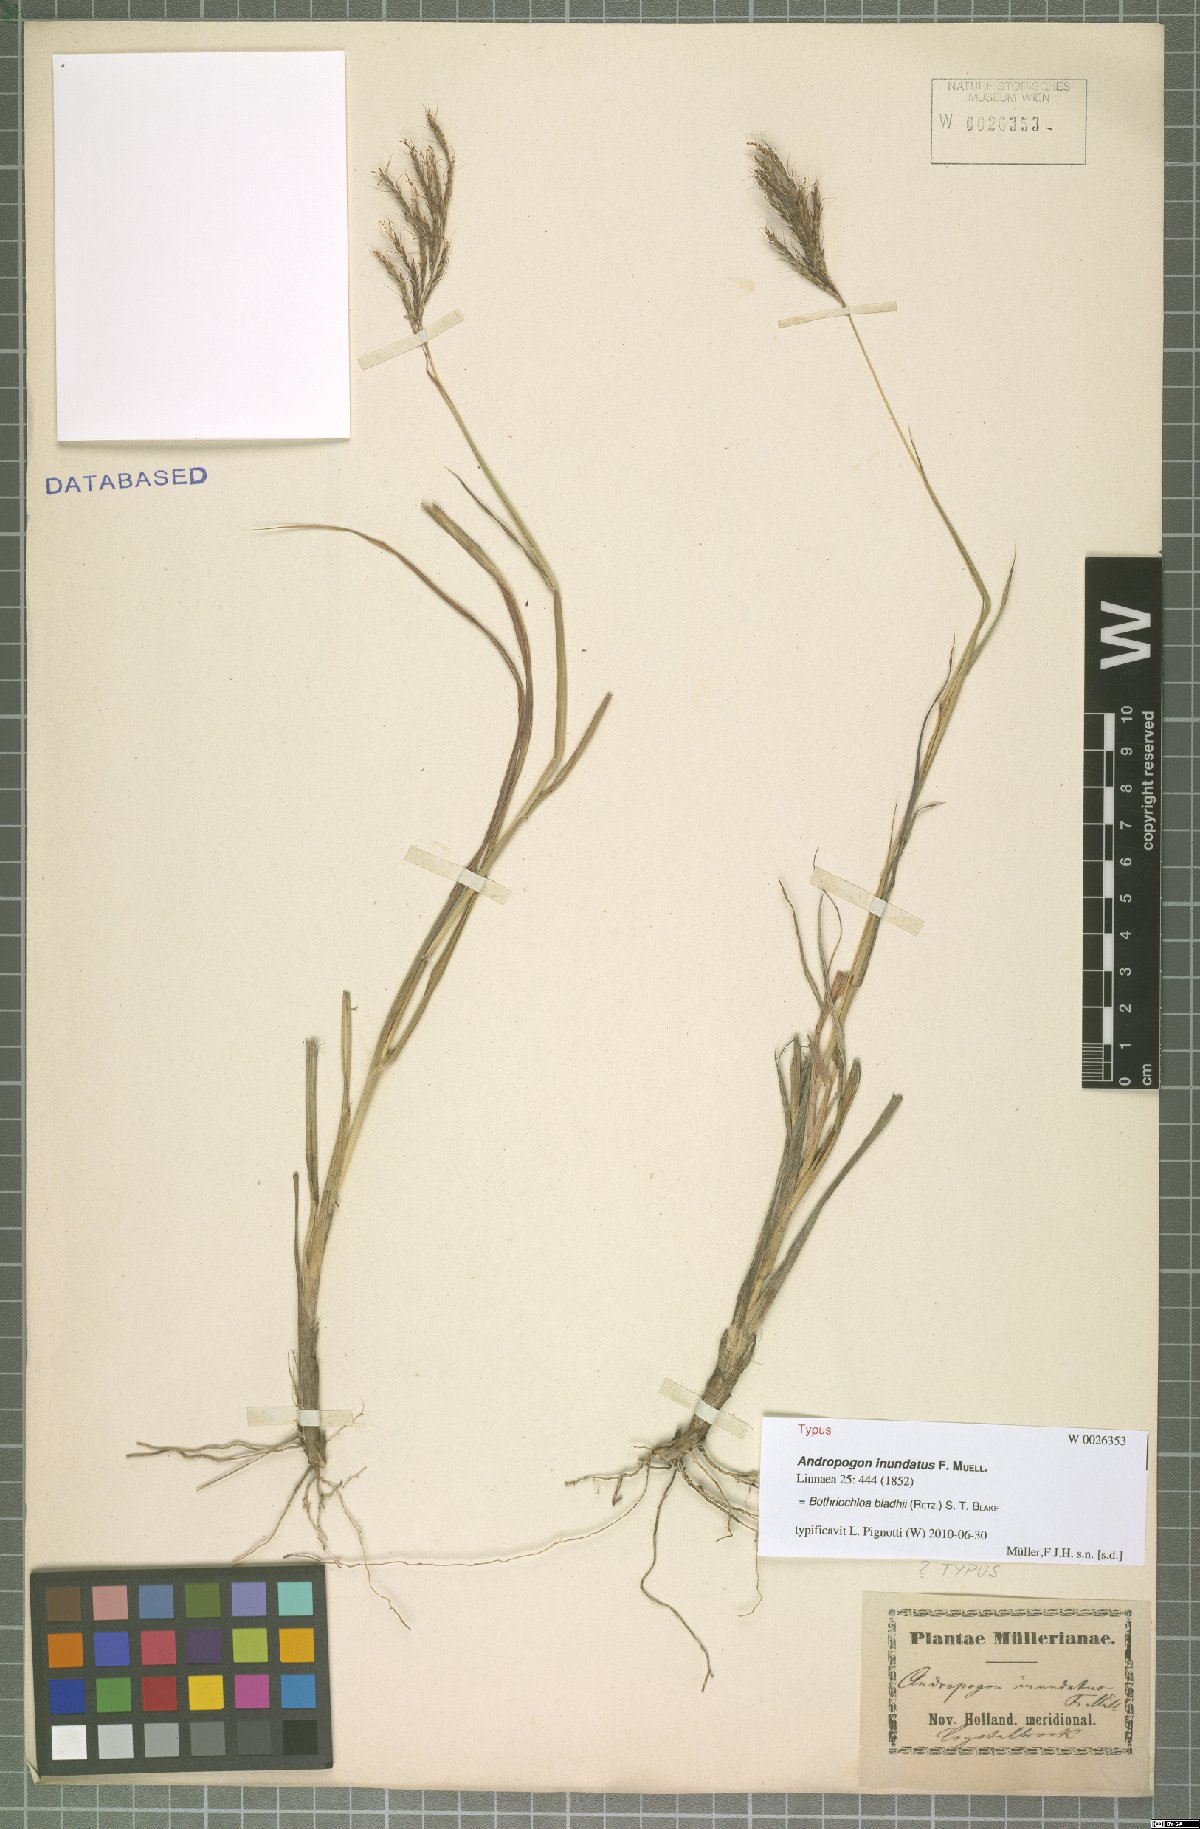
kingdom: Plantae
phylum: Tracheophyta
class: Liliopsida
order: Poales
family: Poaceae
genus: Bothriochloa
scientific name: Bothriochloa bladhii
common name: Caucasian bluestem
